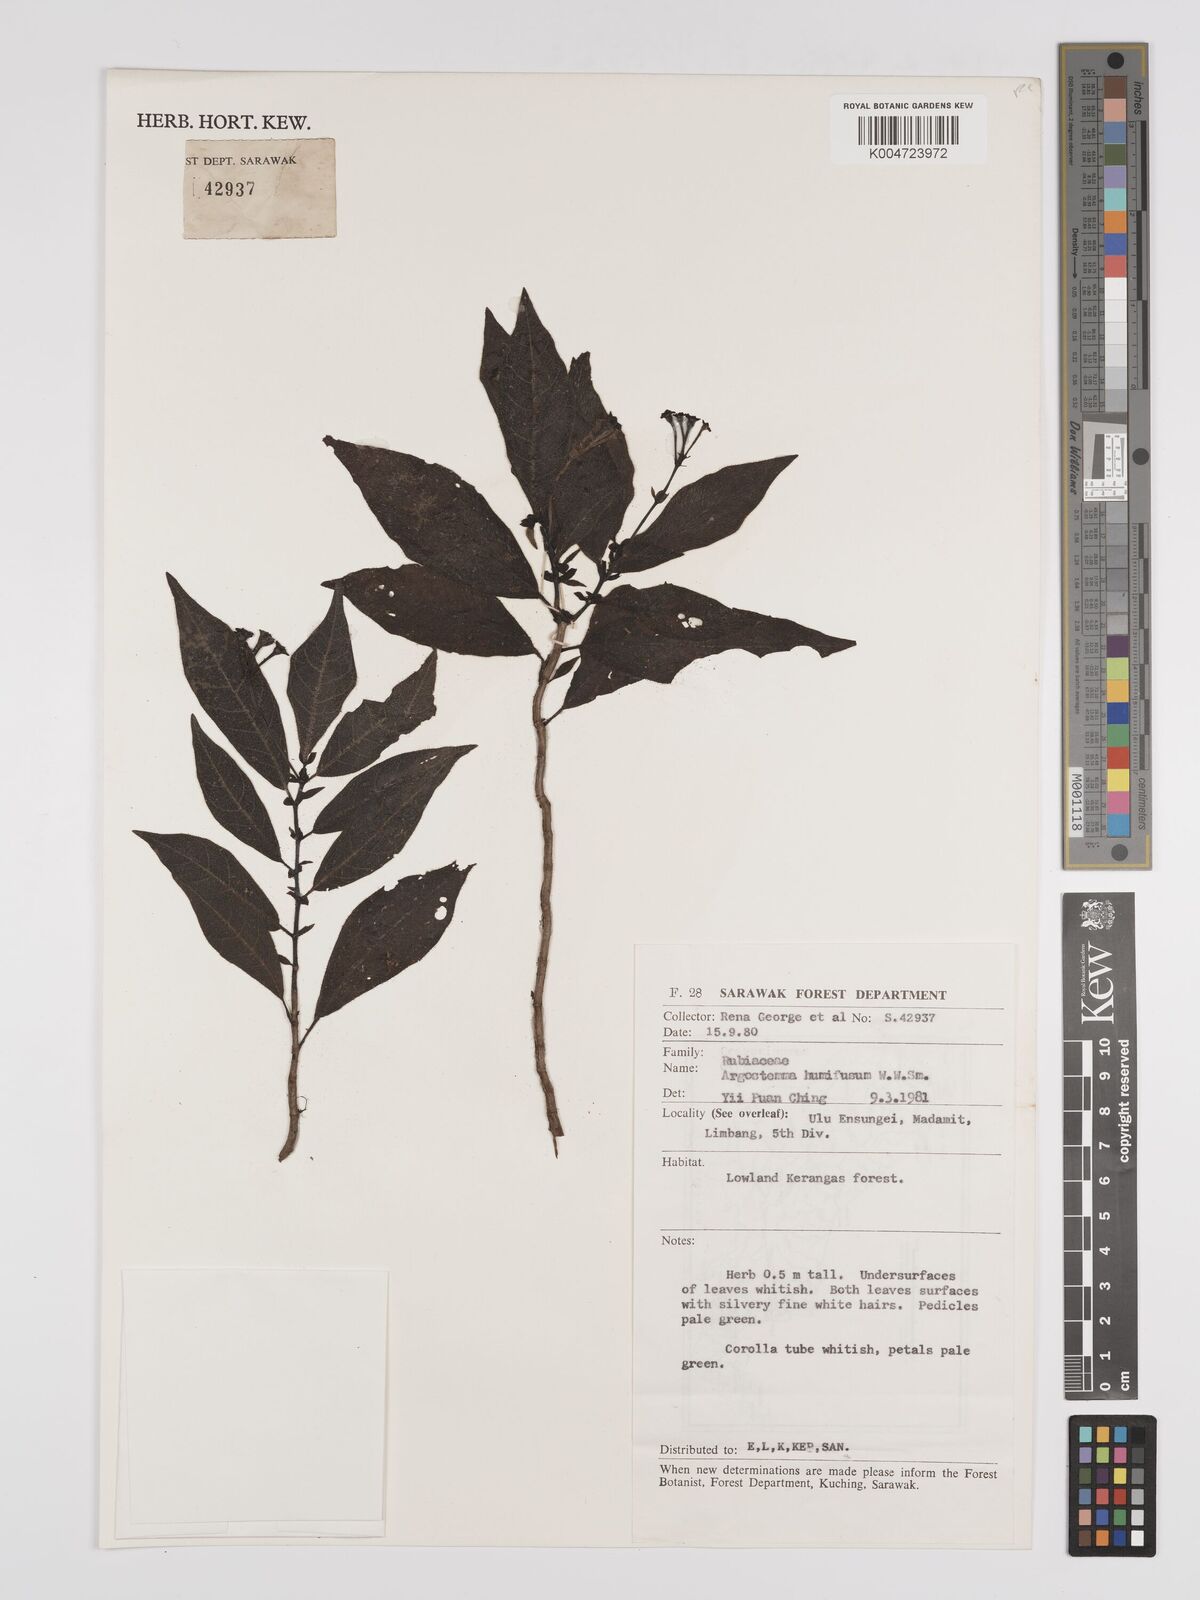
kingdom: Plantae
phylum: Tracheophyta
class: Magnoliopsida
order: Gentianales
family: Rubiaceae
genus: Argostemma
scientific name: Argostemma humifusum
